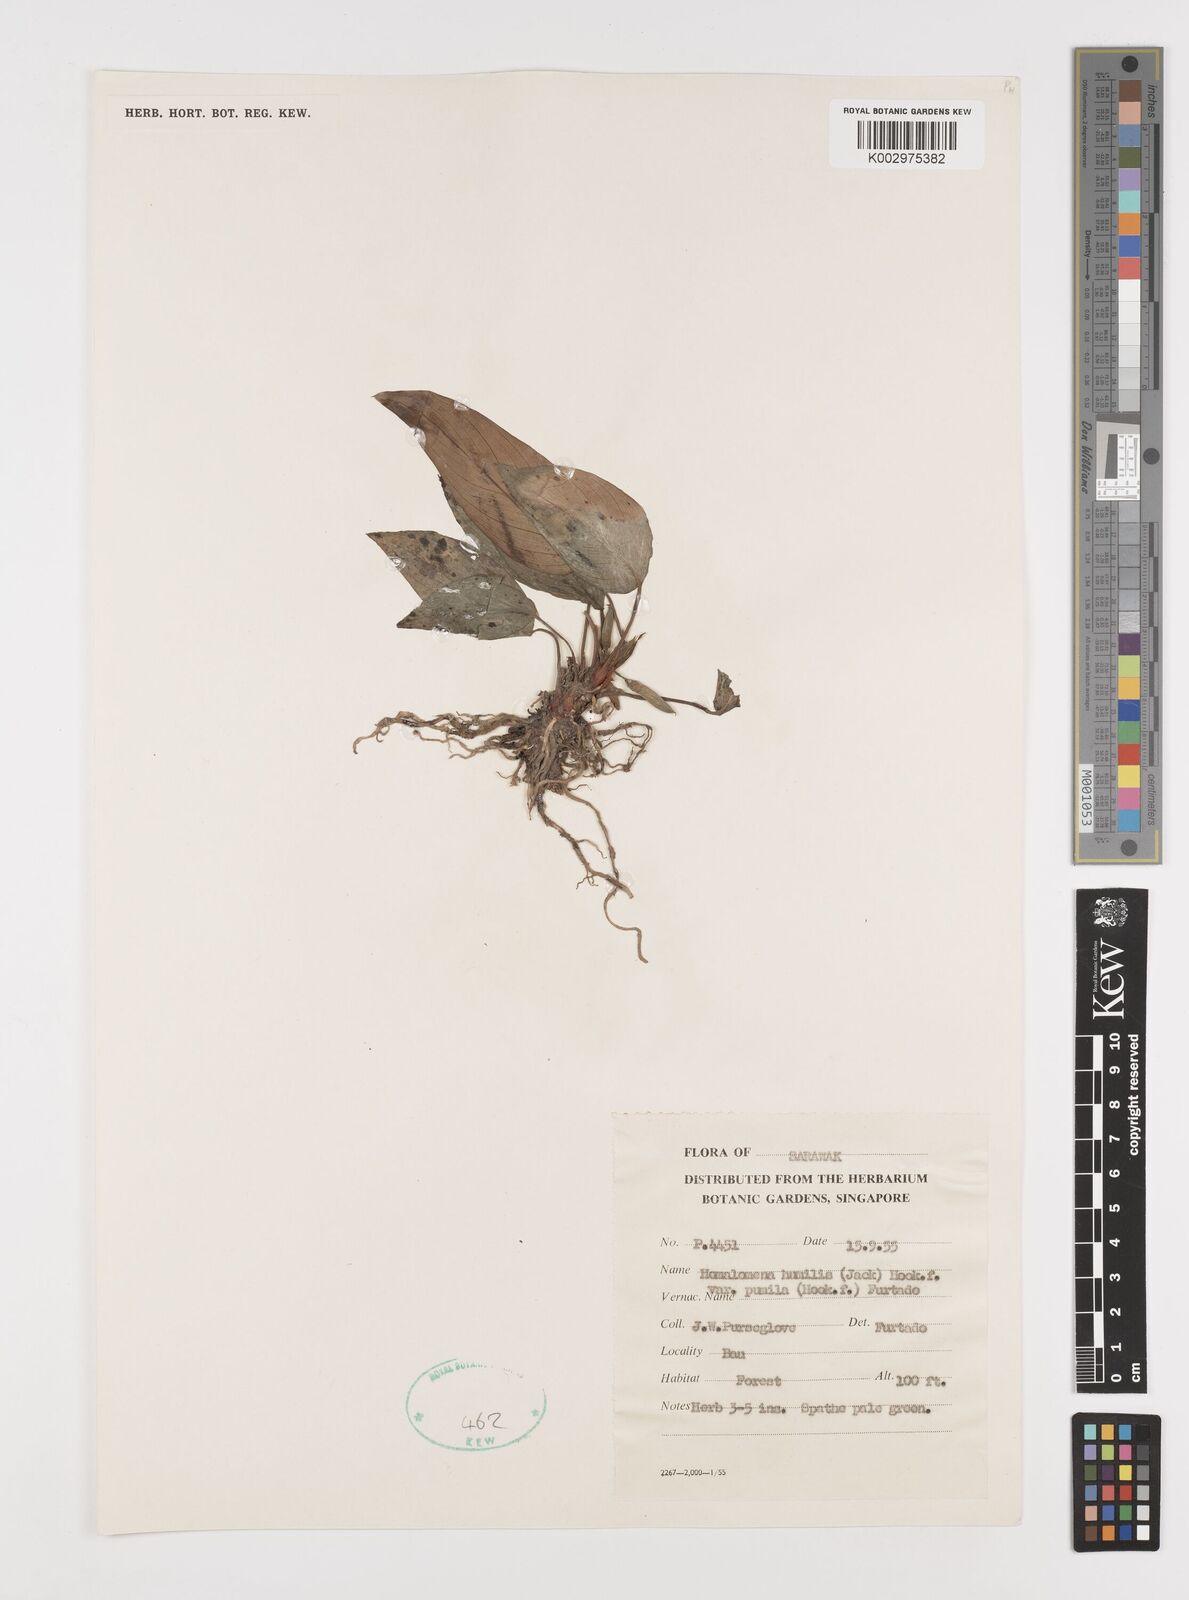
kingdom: Plantae
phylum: Tracheophyta
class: Liliopsida
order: Alismatales
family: Araceae
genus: Homalomena
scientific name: Homalomena humilis
